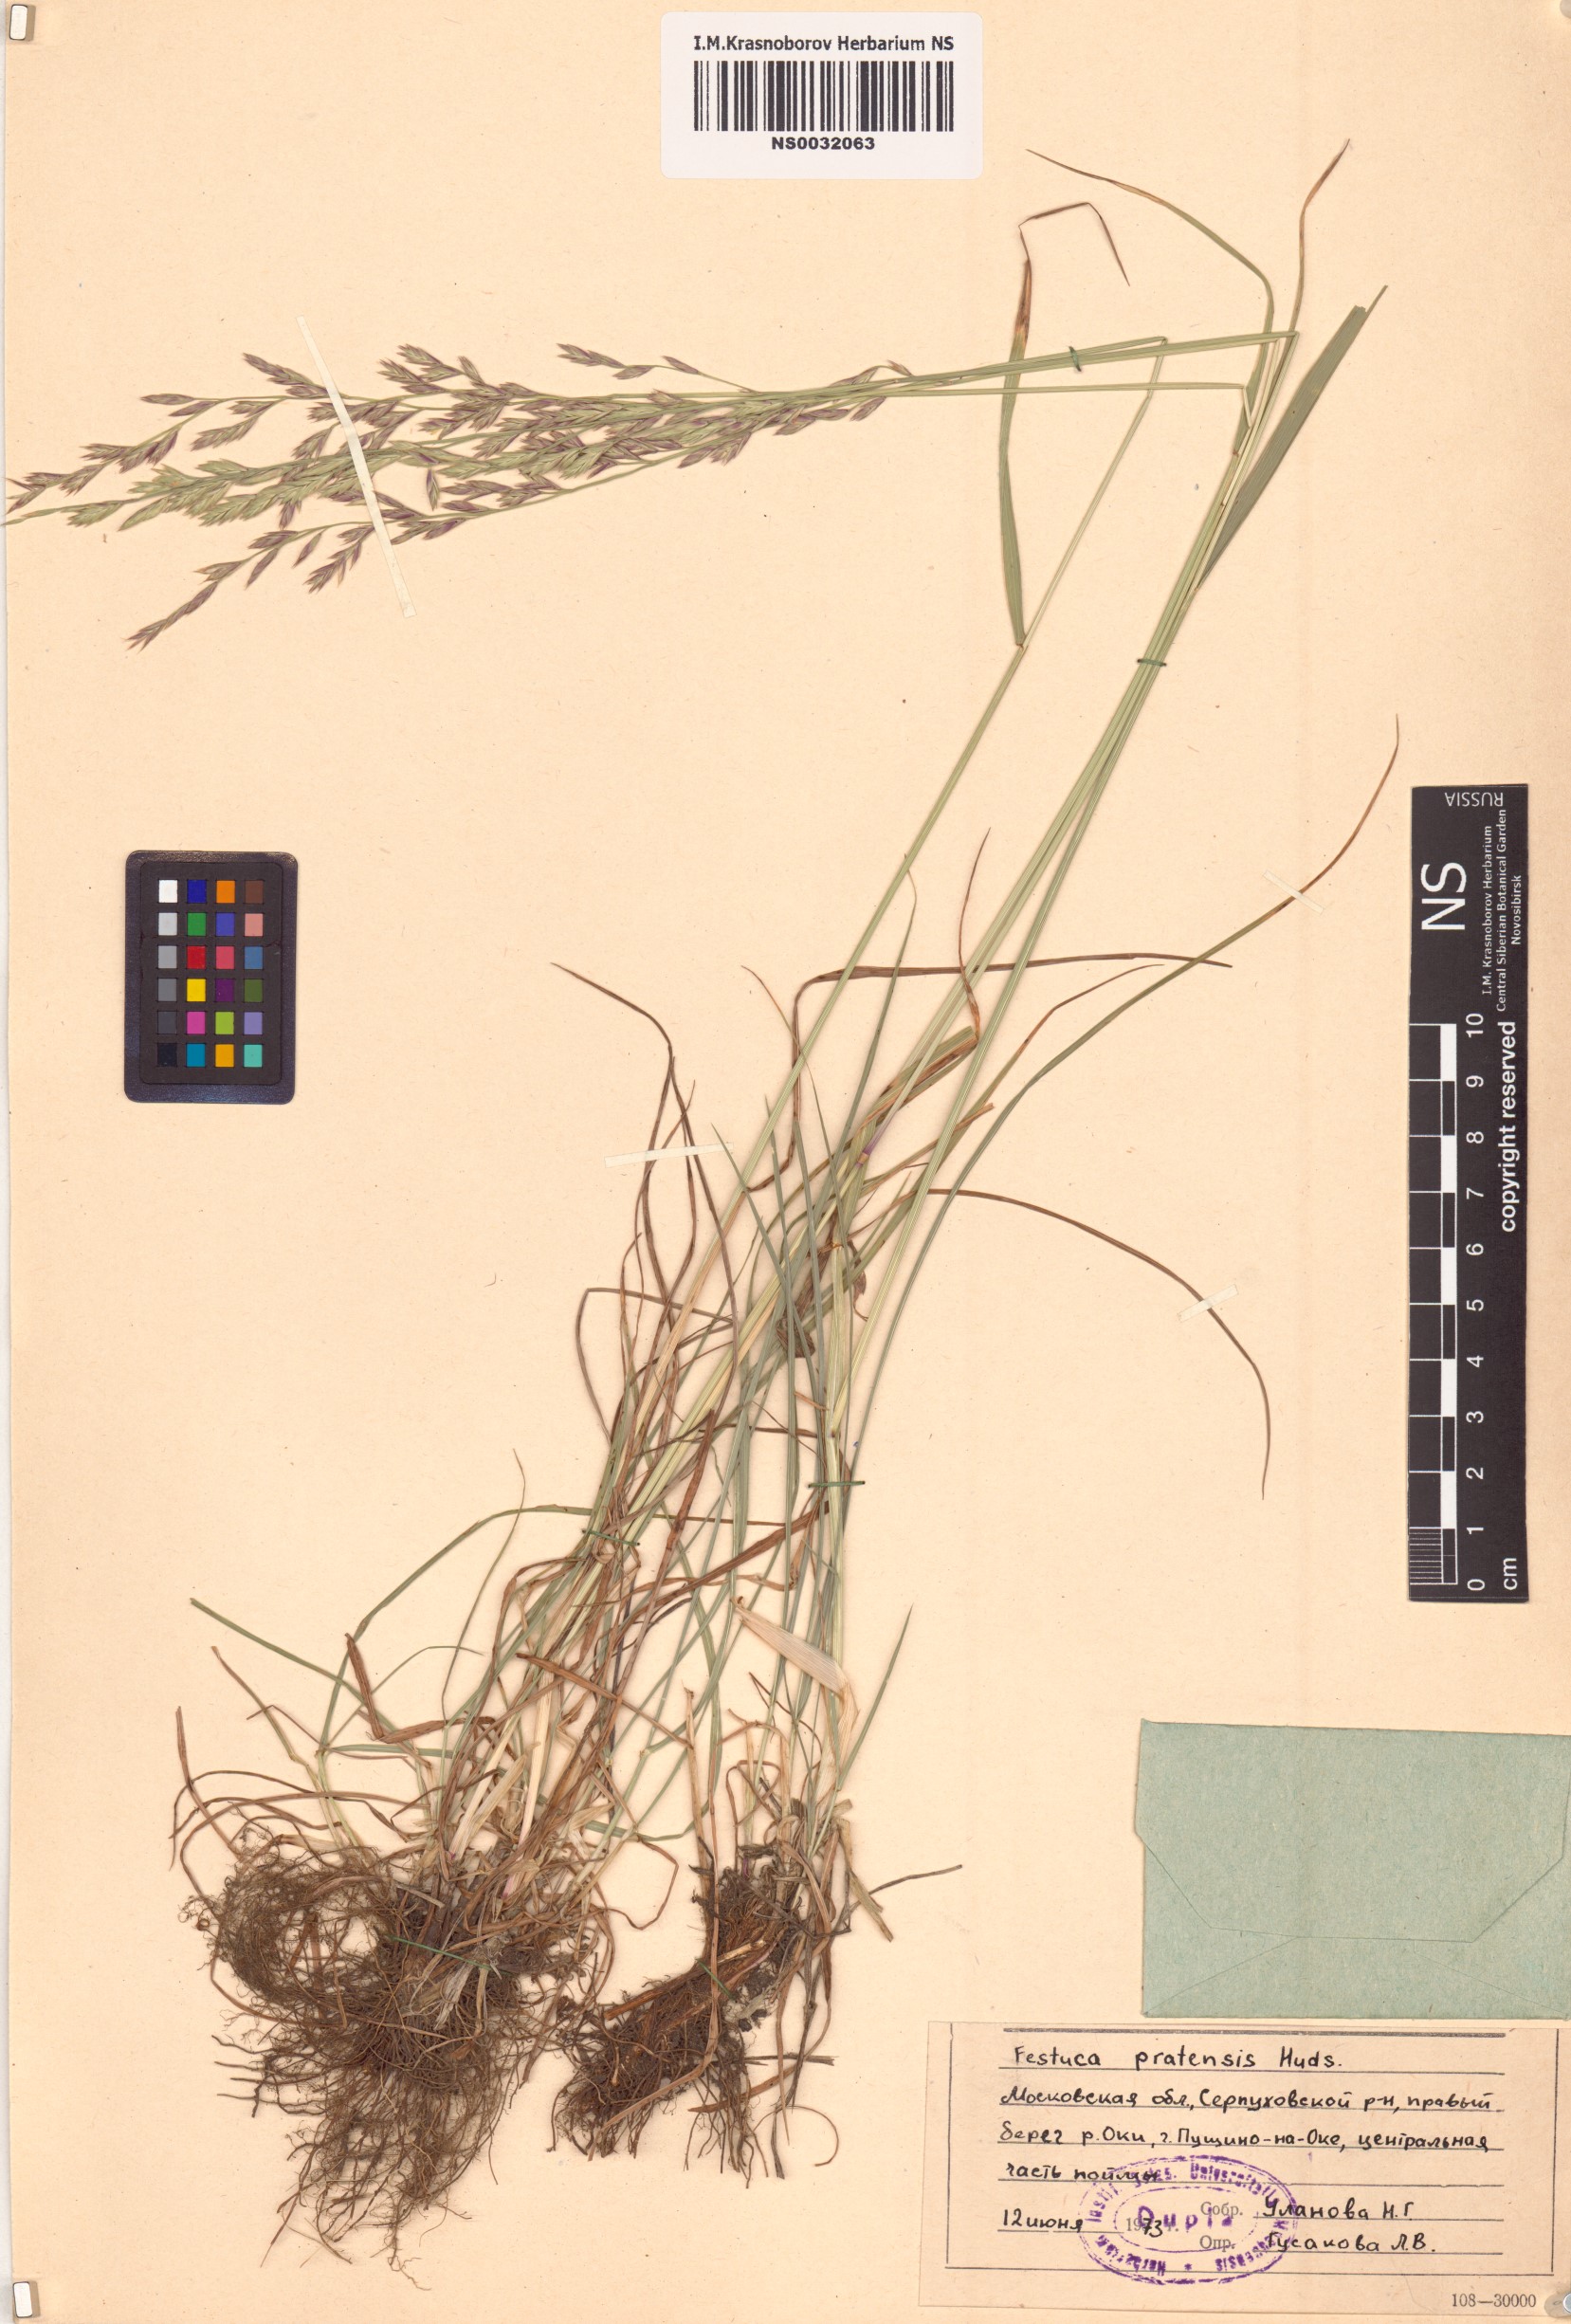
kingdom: Plantae
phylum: Tracheophyta
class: Liliopsida
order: Poales
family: Poaceae
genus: Lolium
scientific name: Lolium pratense
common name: Dover grass
